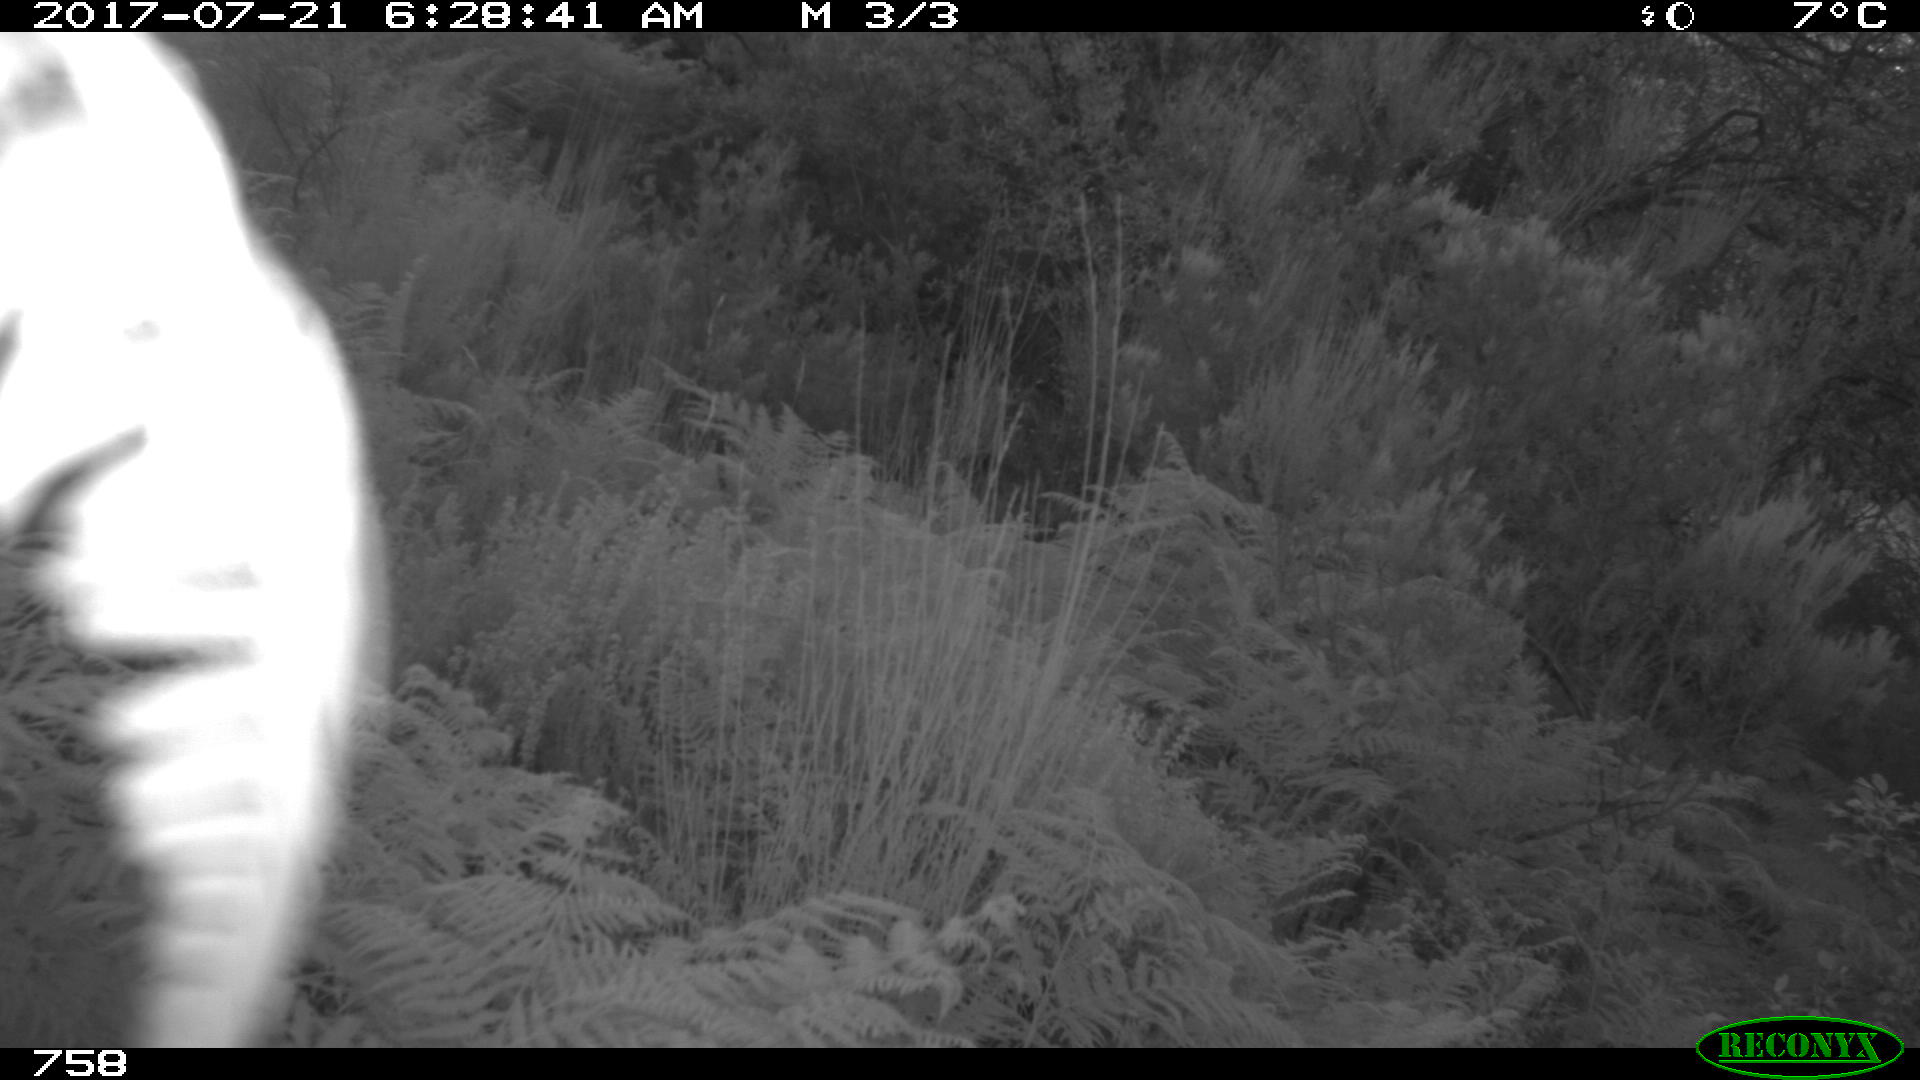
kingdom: Animalia
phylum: Chordata
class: Mammalia
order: Artiodactyla
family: Cervidae
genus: Capreolus
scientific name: Capreolus capreolus
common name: Western roe deer
